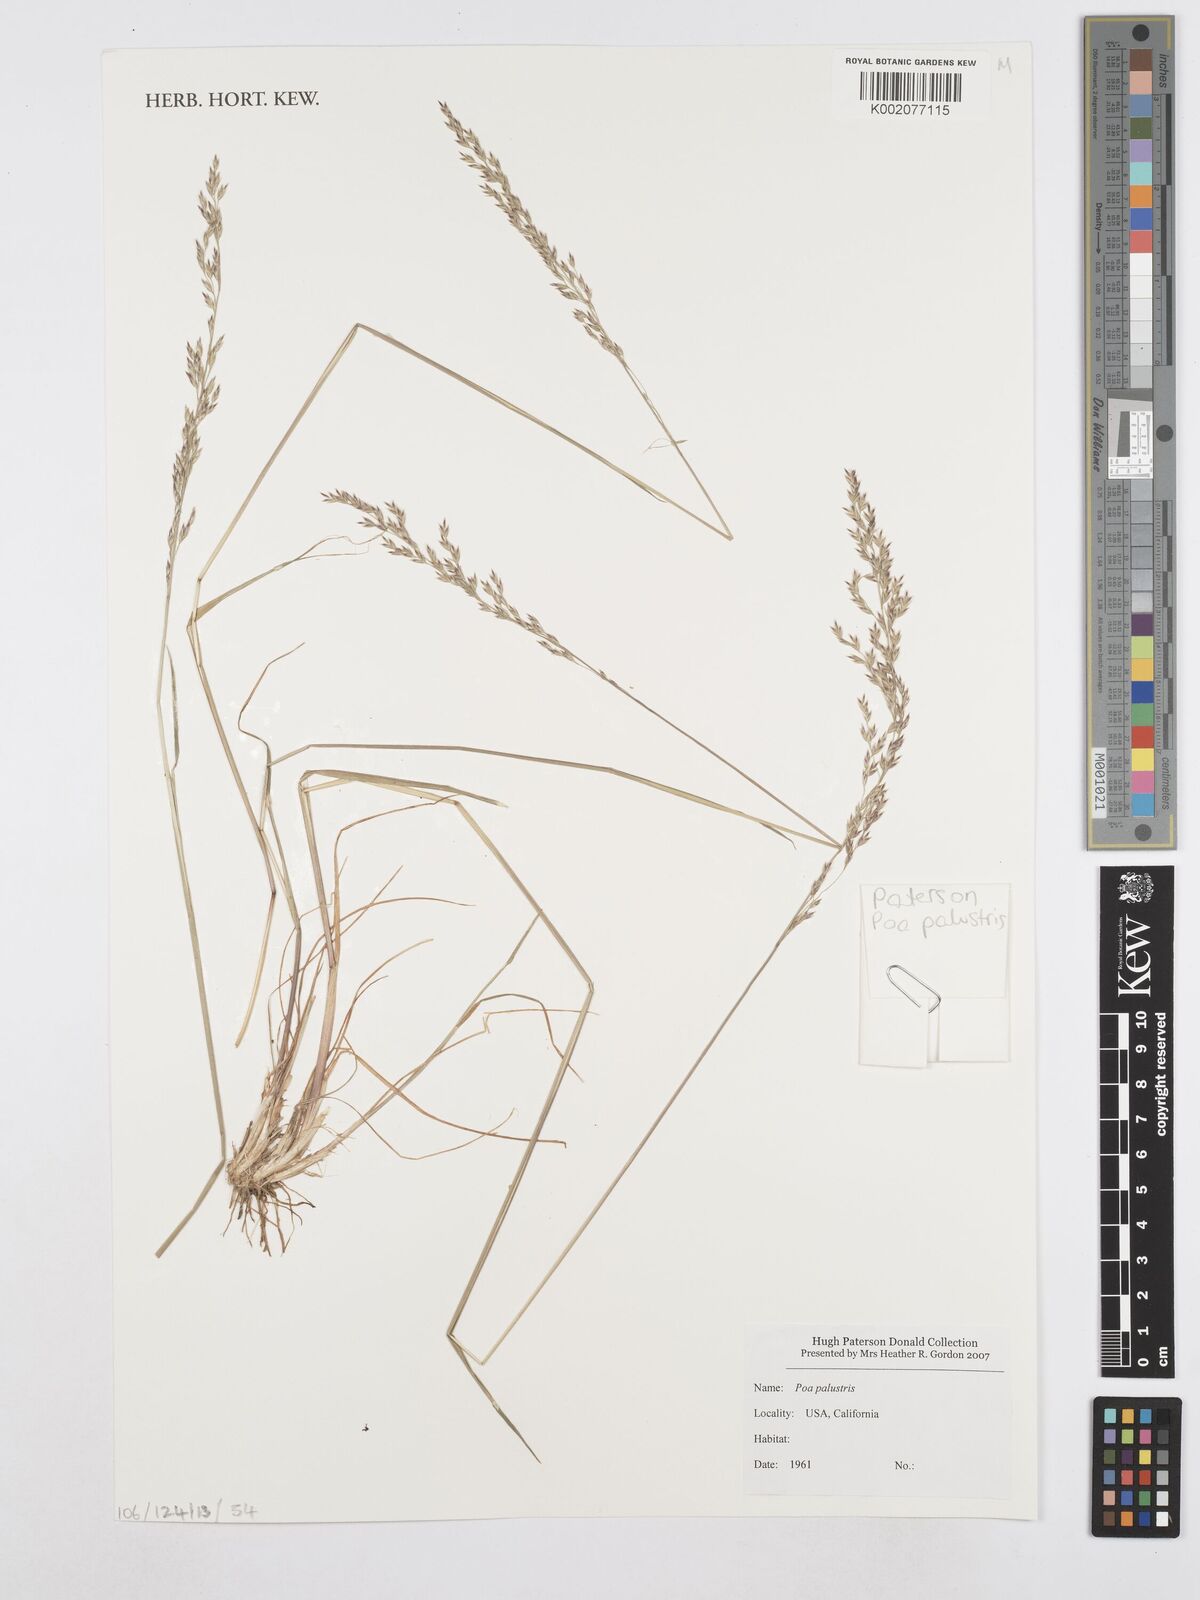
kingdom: Plantae
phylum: Tracheophyta
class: Liliopsida
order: Poales
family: Poaceae
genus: Poa
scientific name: Poa palustris
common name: Swamp meadow-grass
